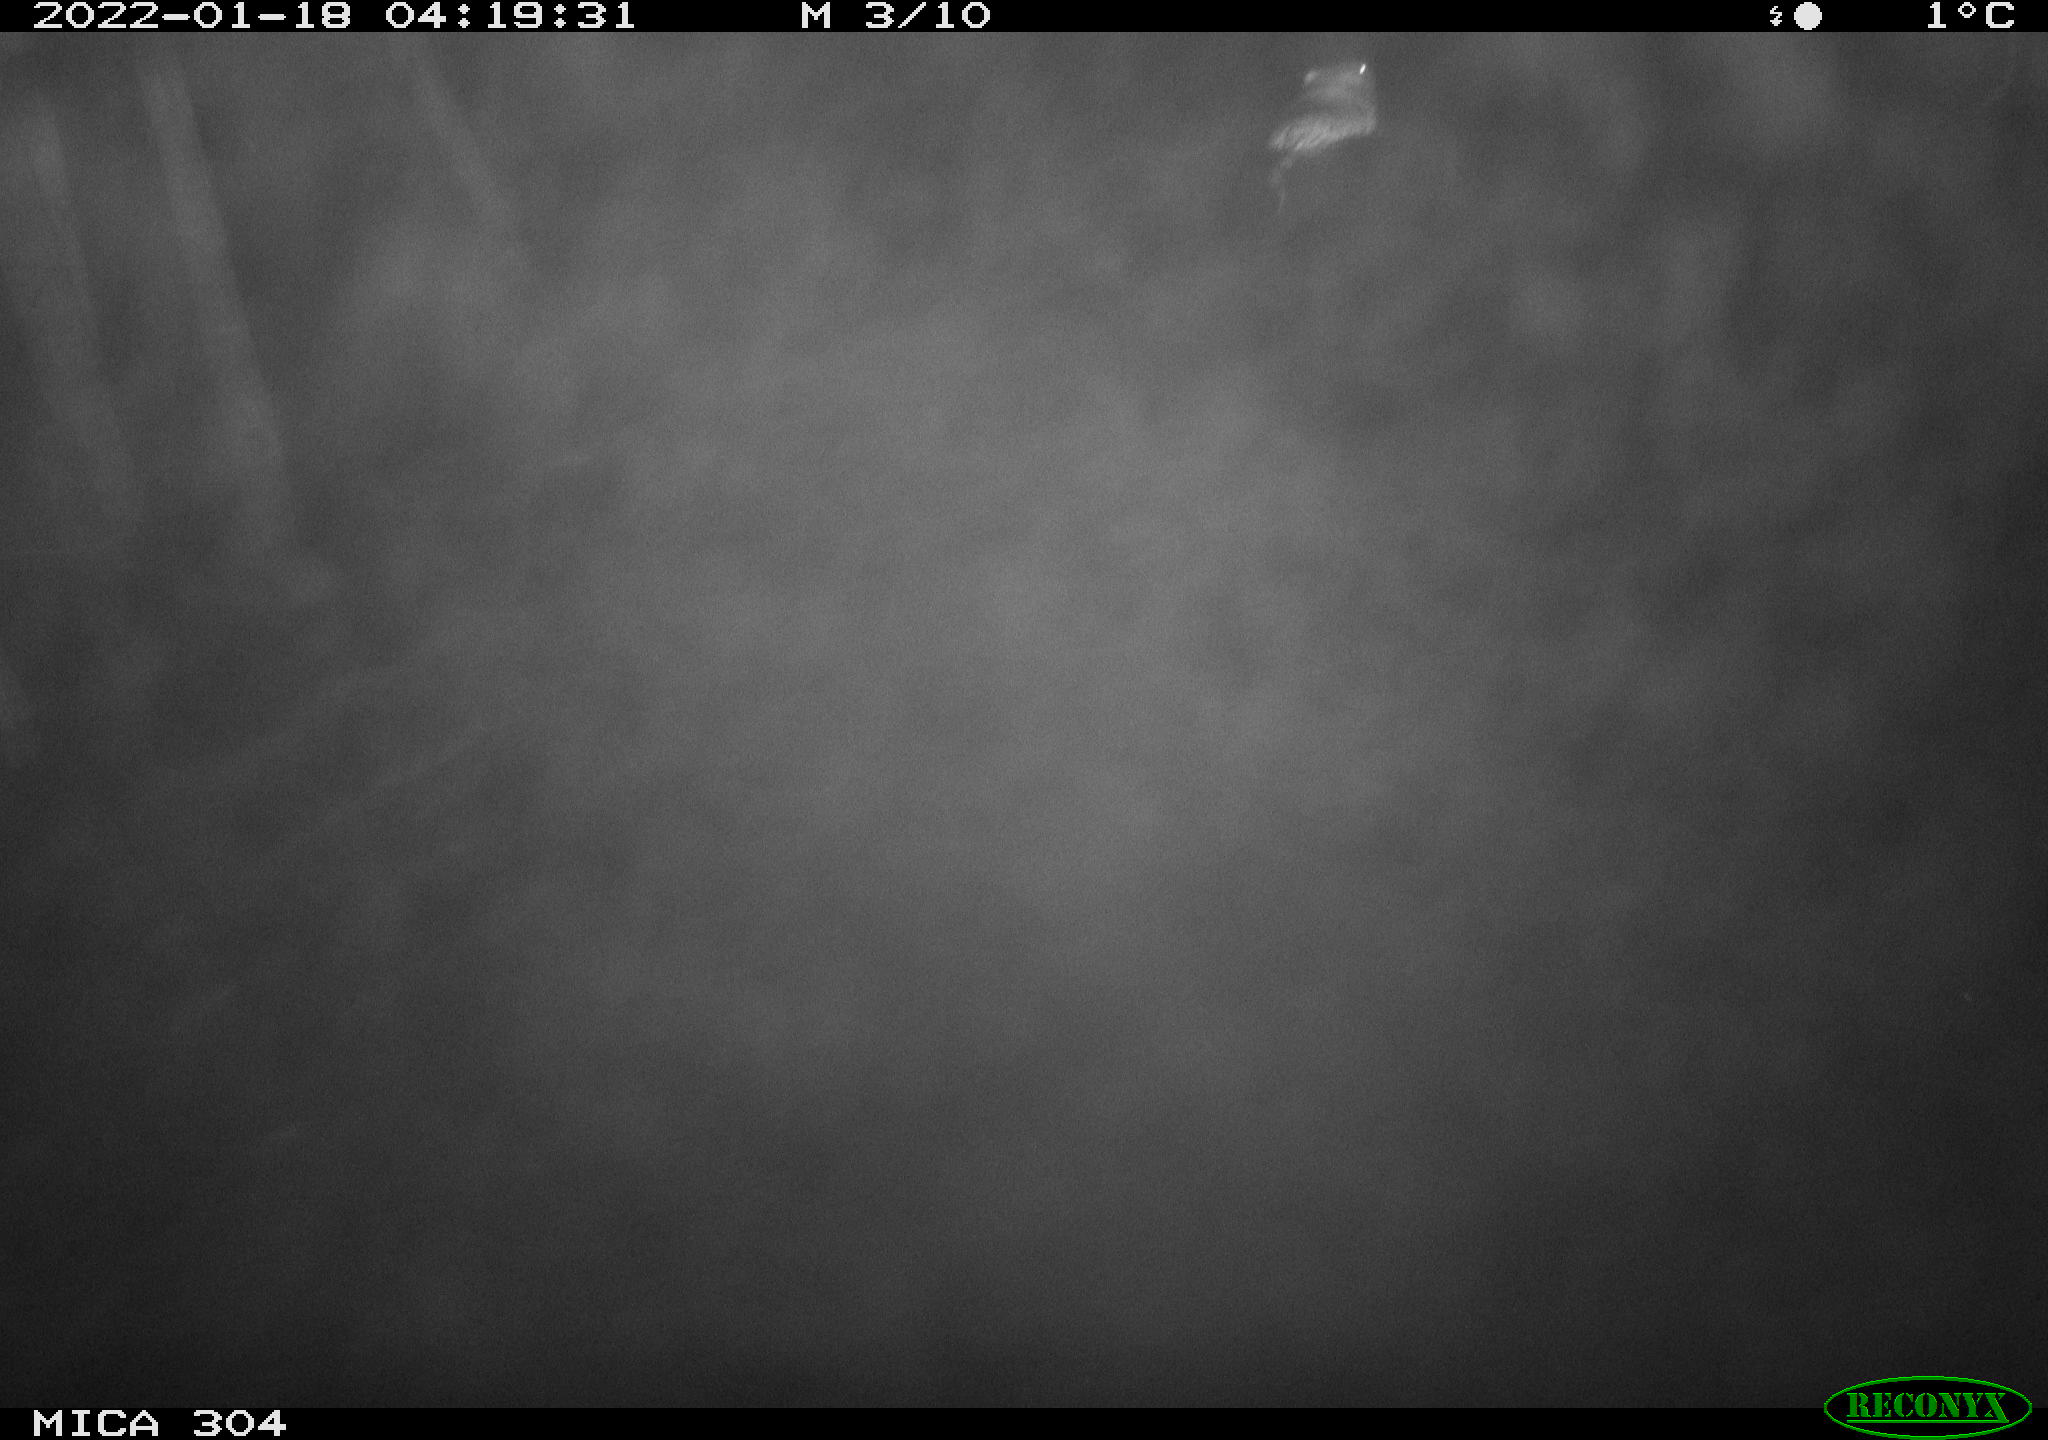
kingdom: Animalia
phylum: Chordata
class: Mammalia
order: Rodentia
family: Cricetidae
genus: Ondatra
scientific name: Ondatra zibethicus
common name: Muskrat
